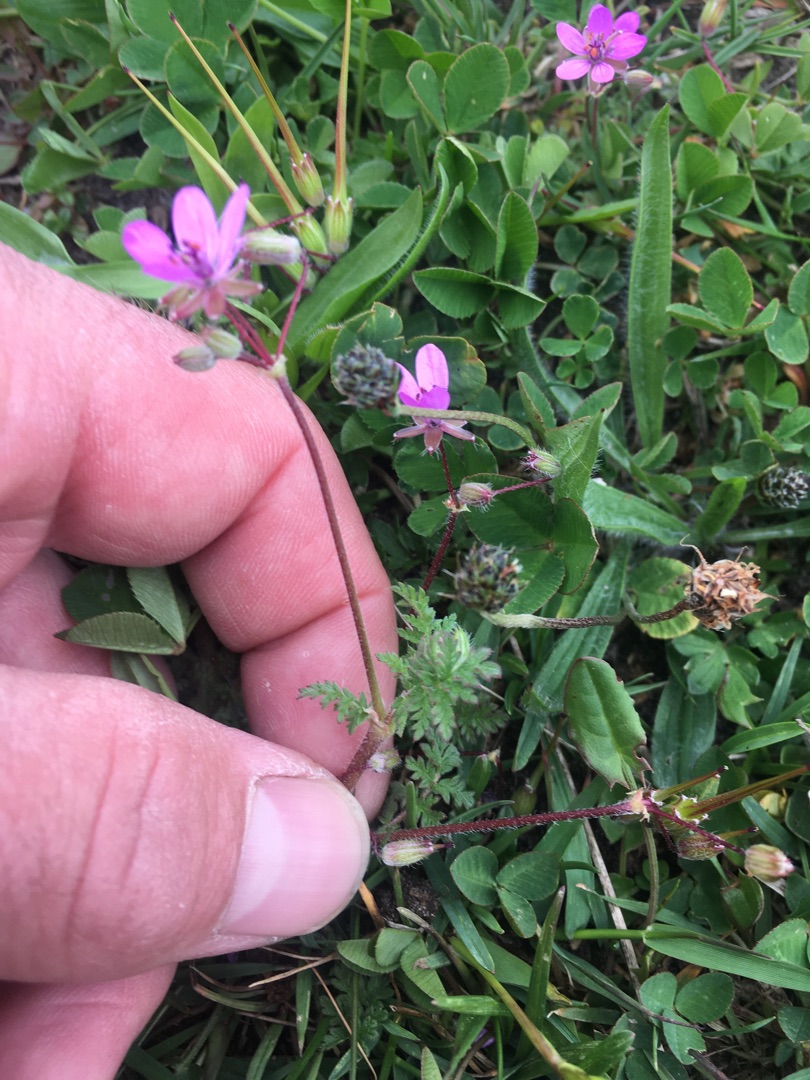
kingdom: Plantae
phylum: Tracheophyta
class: Magnoliopsida
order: Geraniales
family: Geraniaceae
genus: Erodium
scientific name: Erodium cicutarium
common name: Hejrenæb
